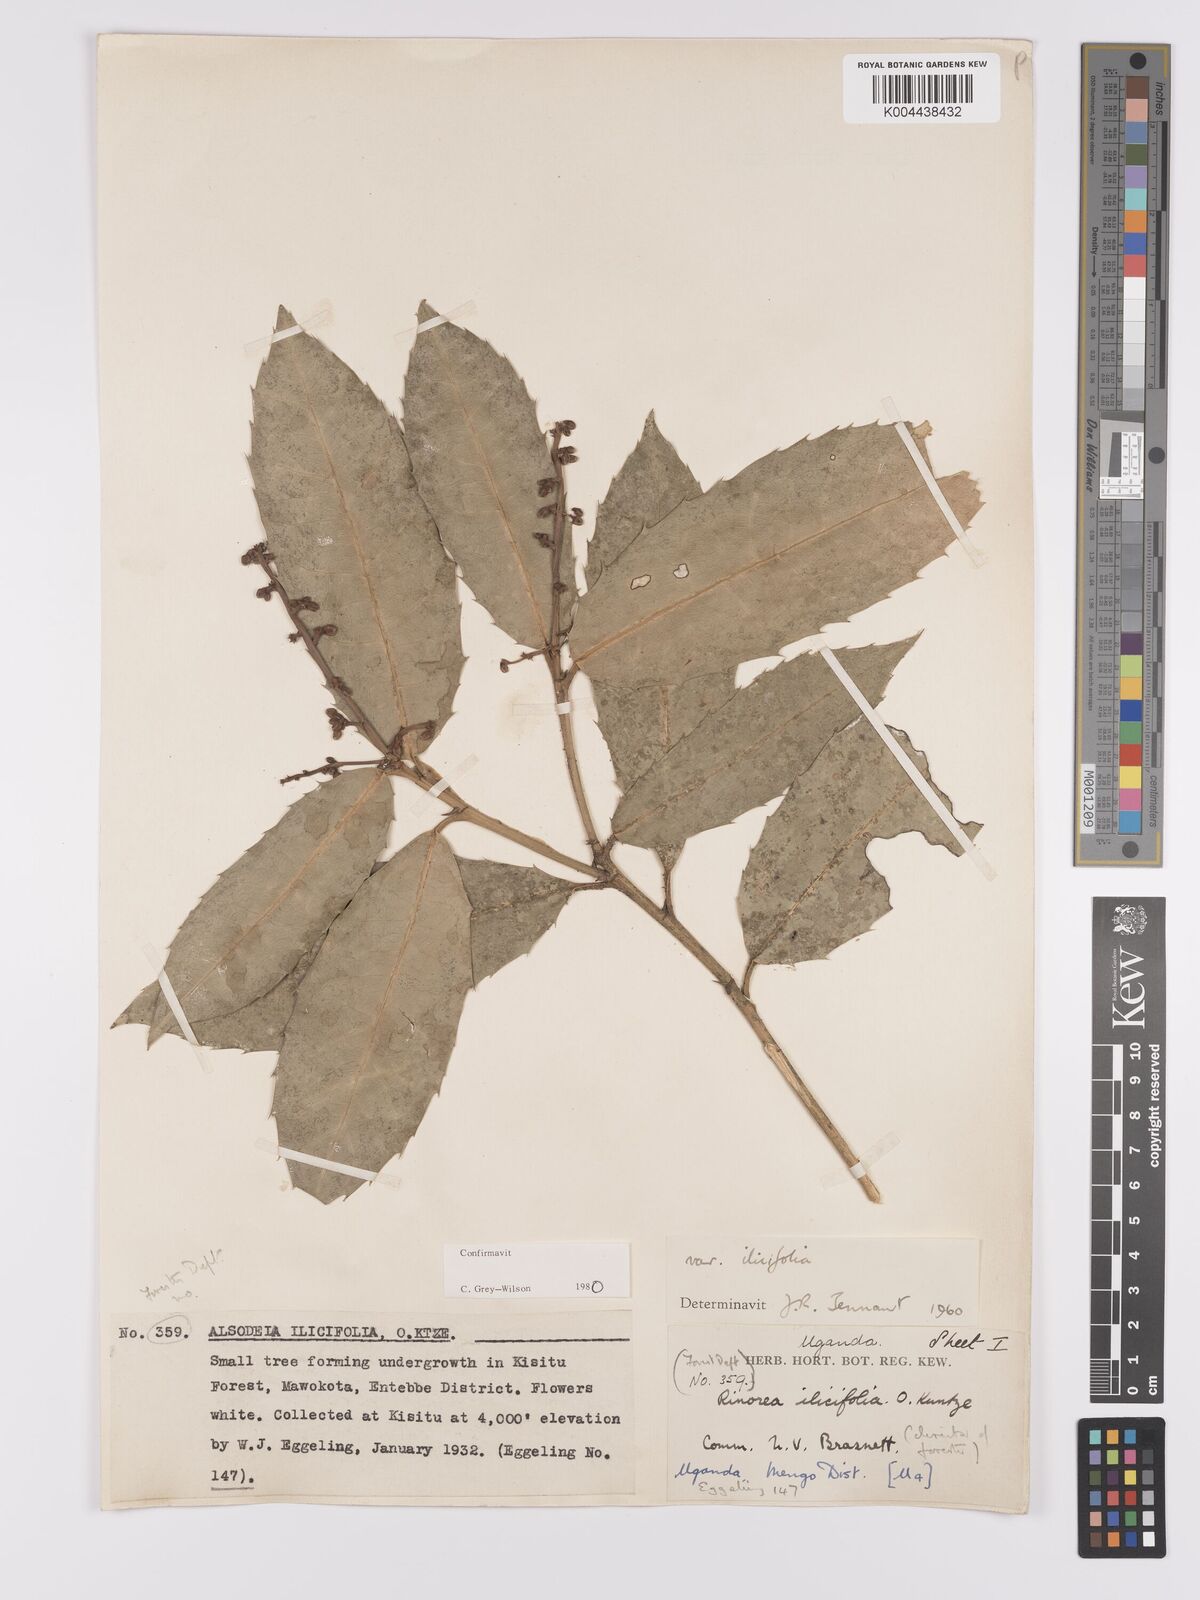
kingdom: Plantae
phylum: Tracheophyta
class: Magnoliopsida
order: Malpighiales
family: Violaceae
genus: Rinorea
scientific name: Rinorea ilicifolia
